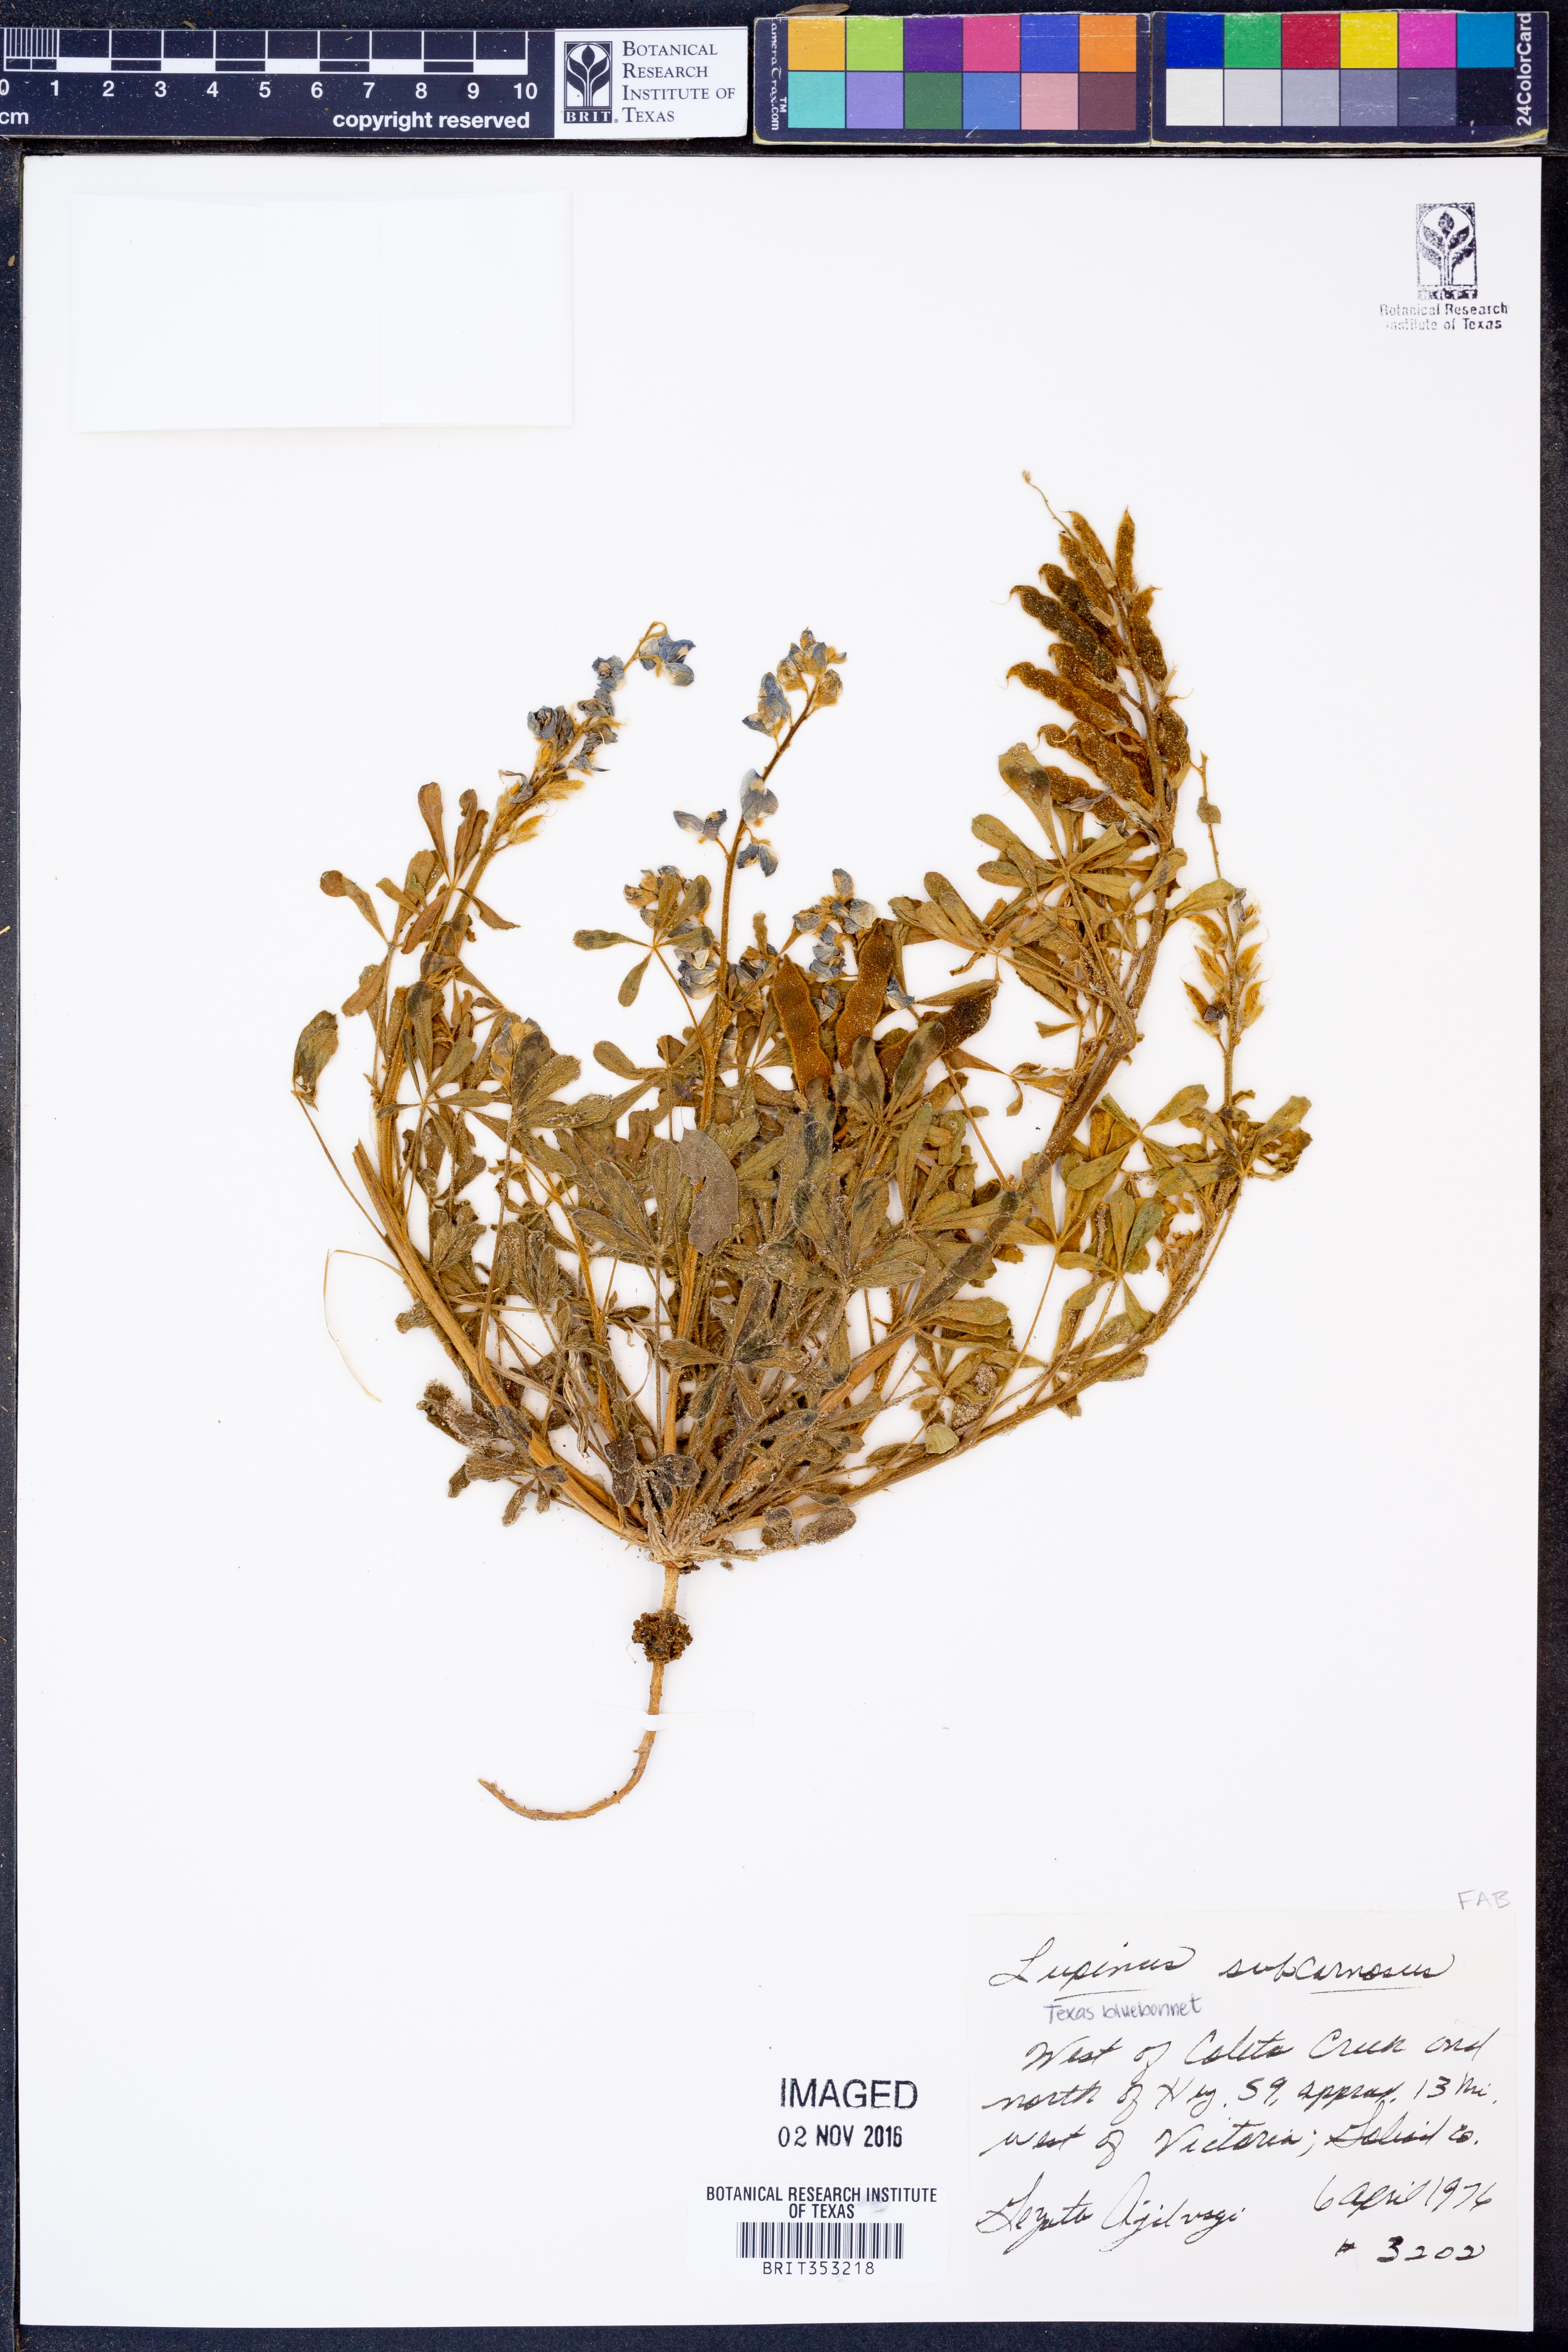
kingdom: Plantae
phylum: Tracheophyta
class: Magnoliopsida
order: Fabales
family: Fabaceae
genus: Lupinus
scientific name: Lupinus subcarnosus
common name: Texas bluebonnet
